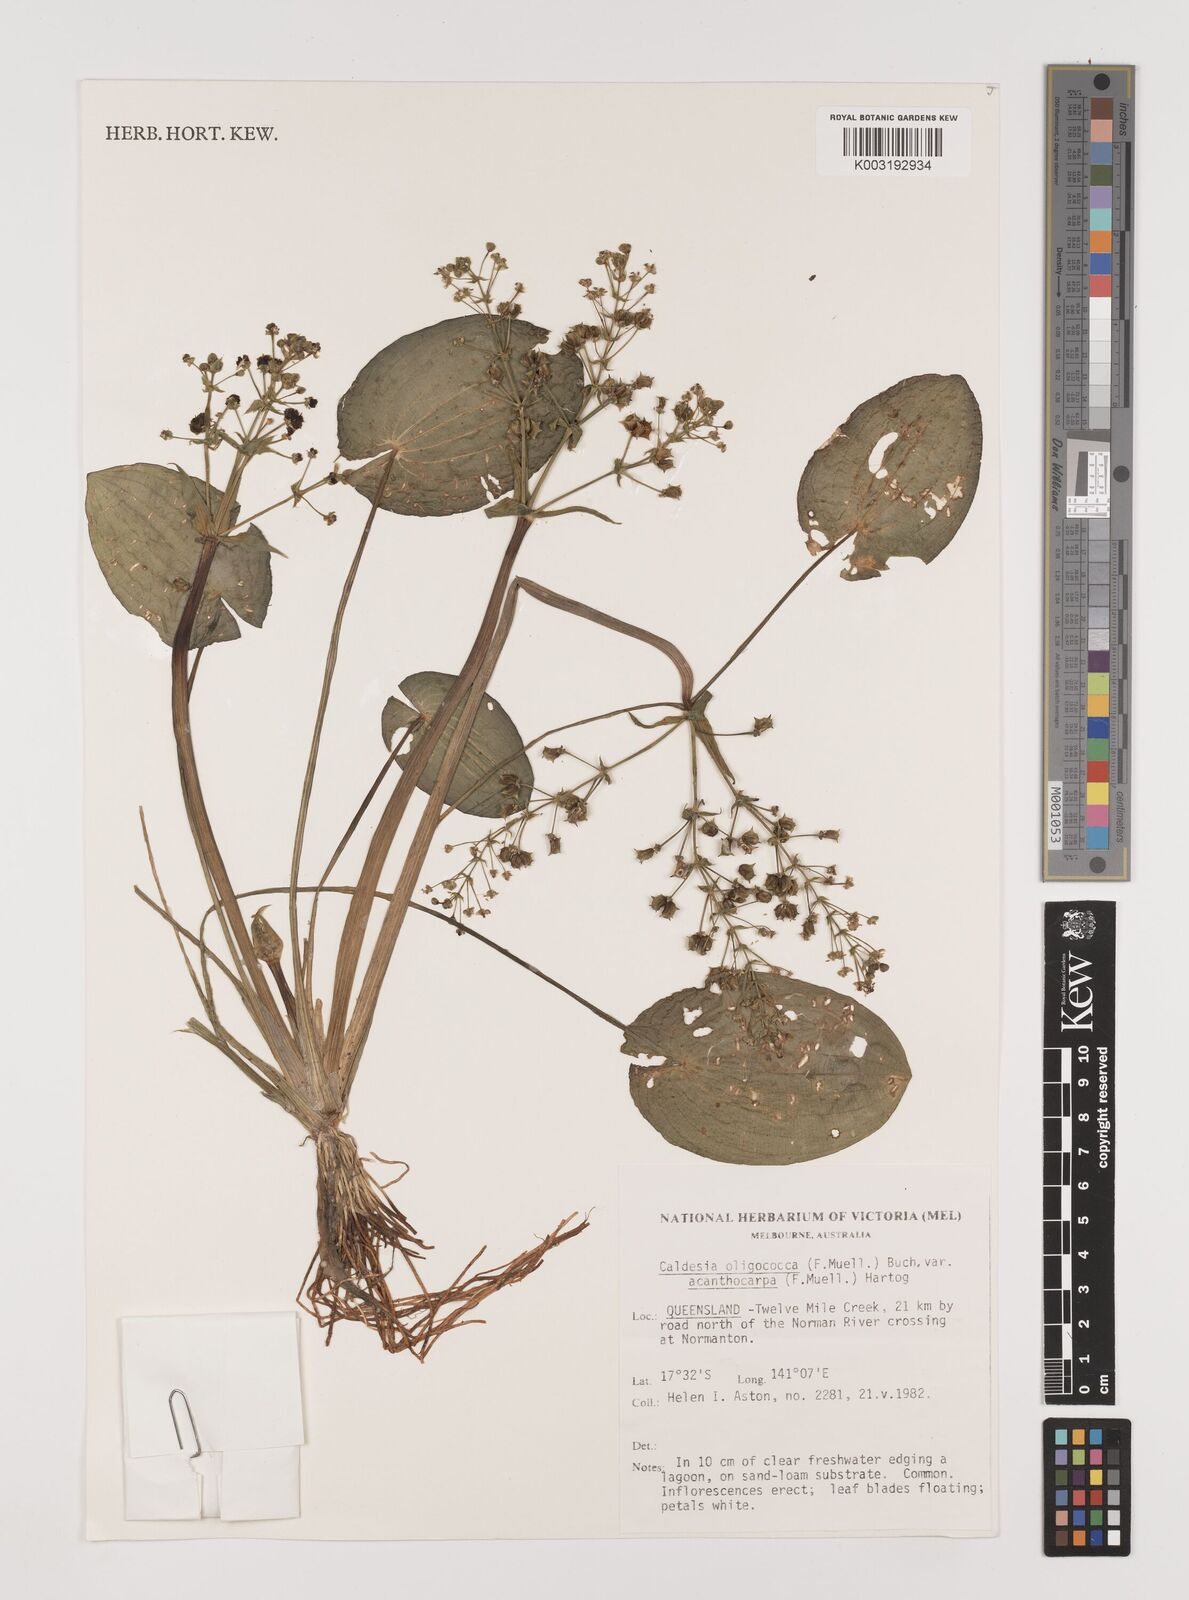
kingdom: Plantae
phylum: Tracheophyta
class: Liliopsida
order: Alismatales
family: Alismataceae
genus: Albidella
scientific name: Albidella oligococca
